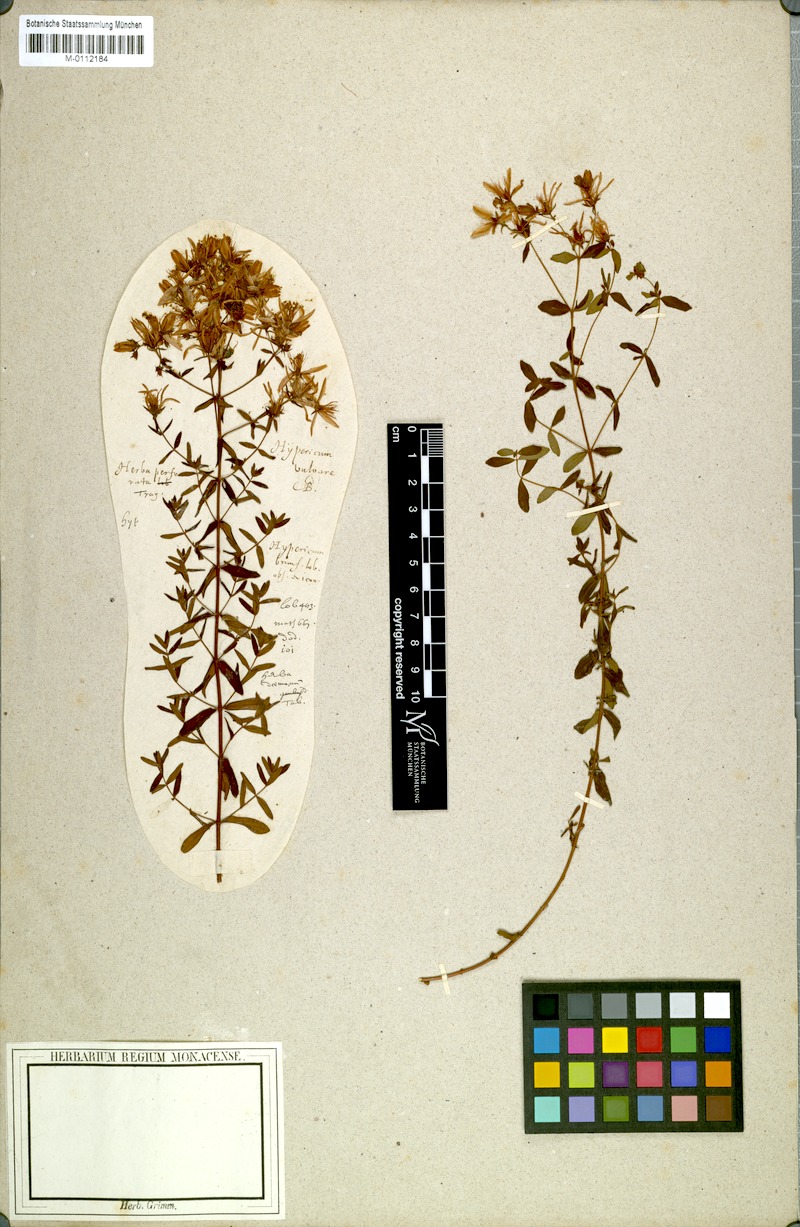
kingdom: Plantae
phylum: Tracheophyta
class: Magnoliopsida
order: Malpighiales
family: Hypericaceae
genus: Hypericum
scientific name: Hypericum perforatum
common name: Common st. johnswort
